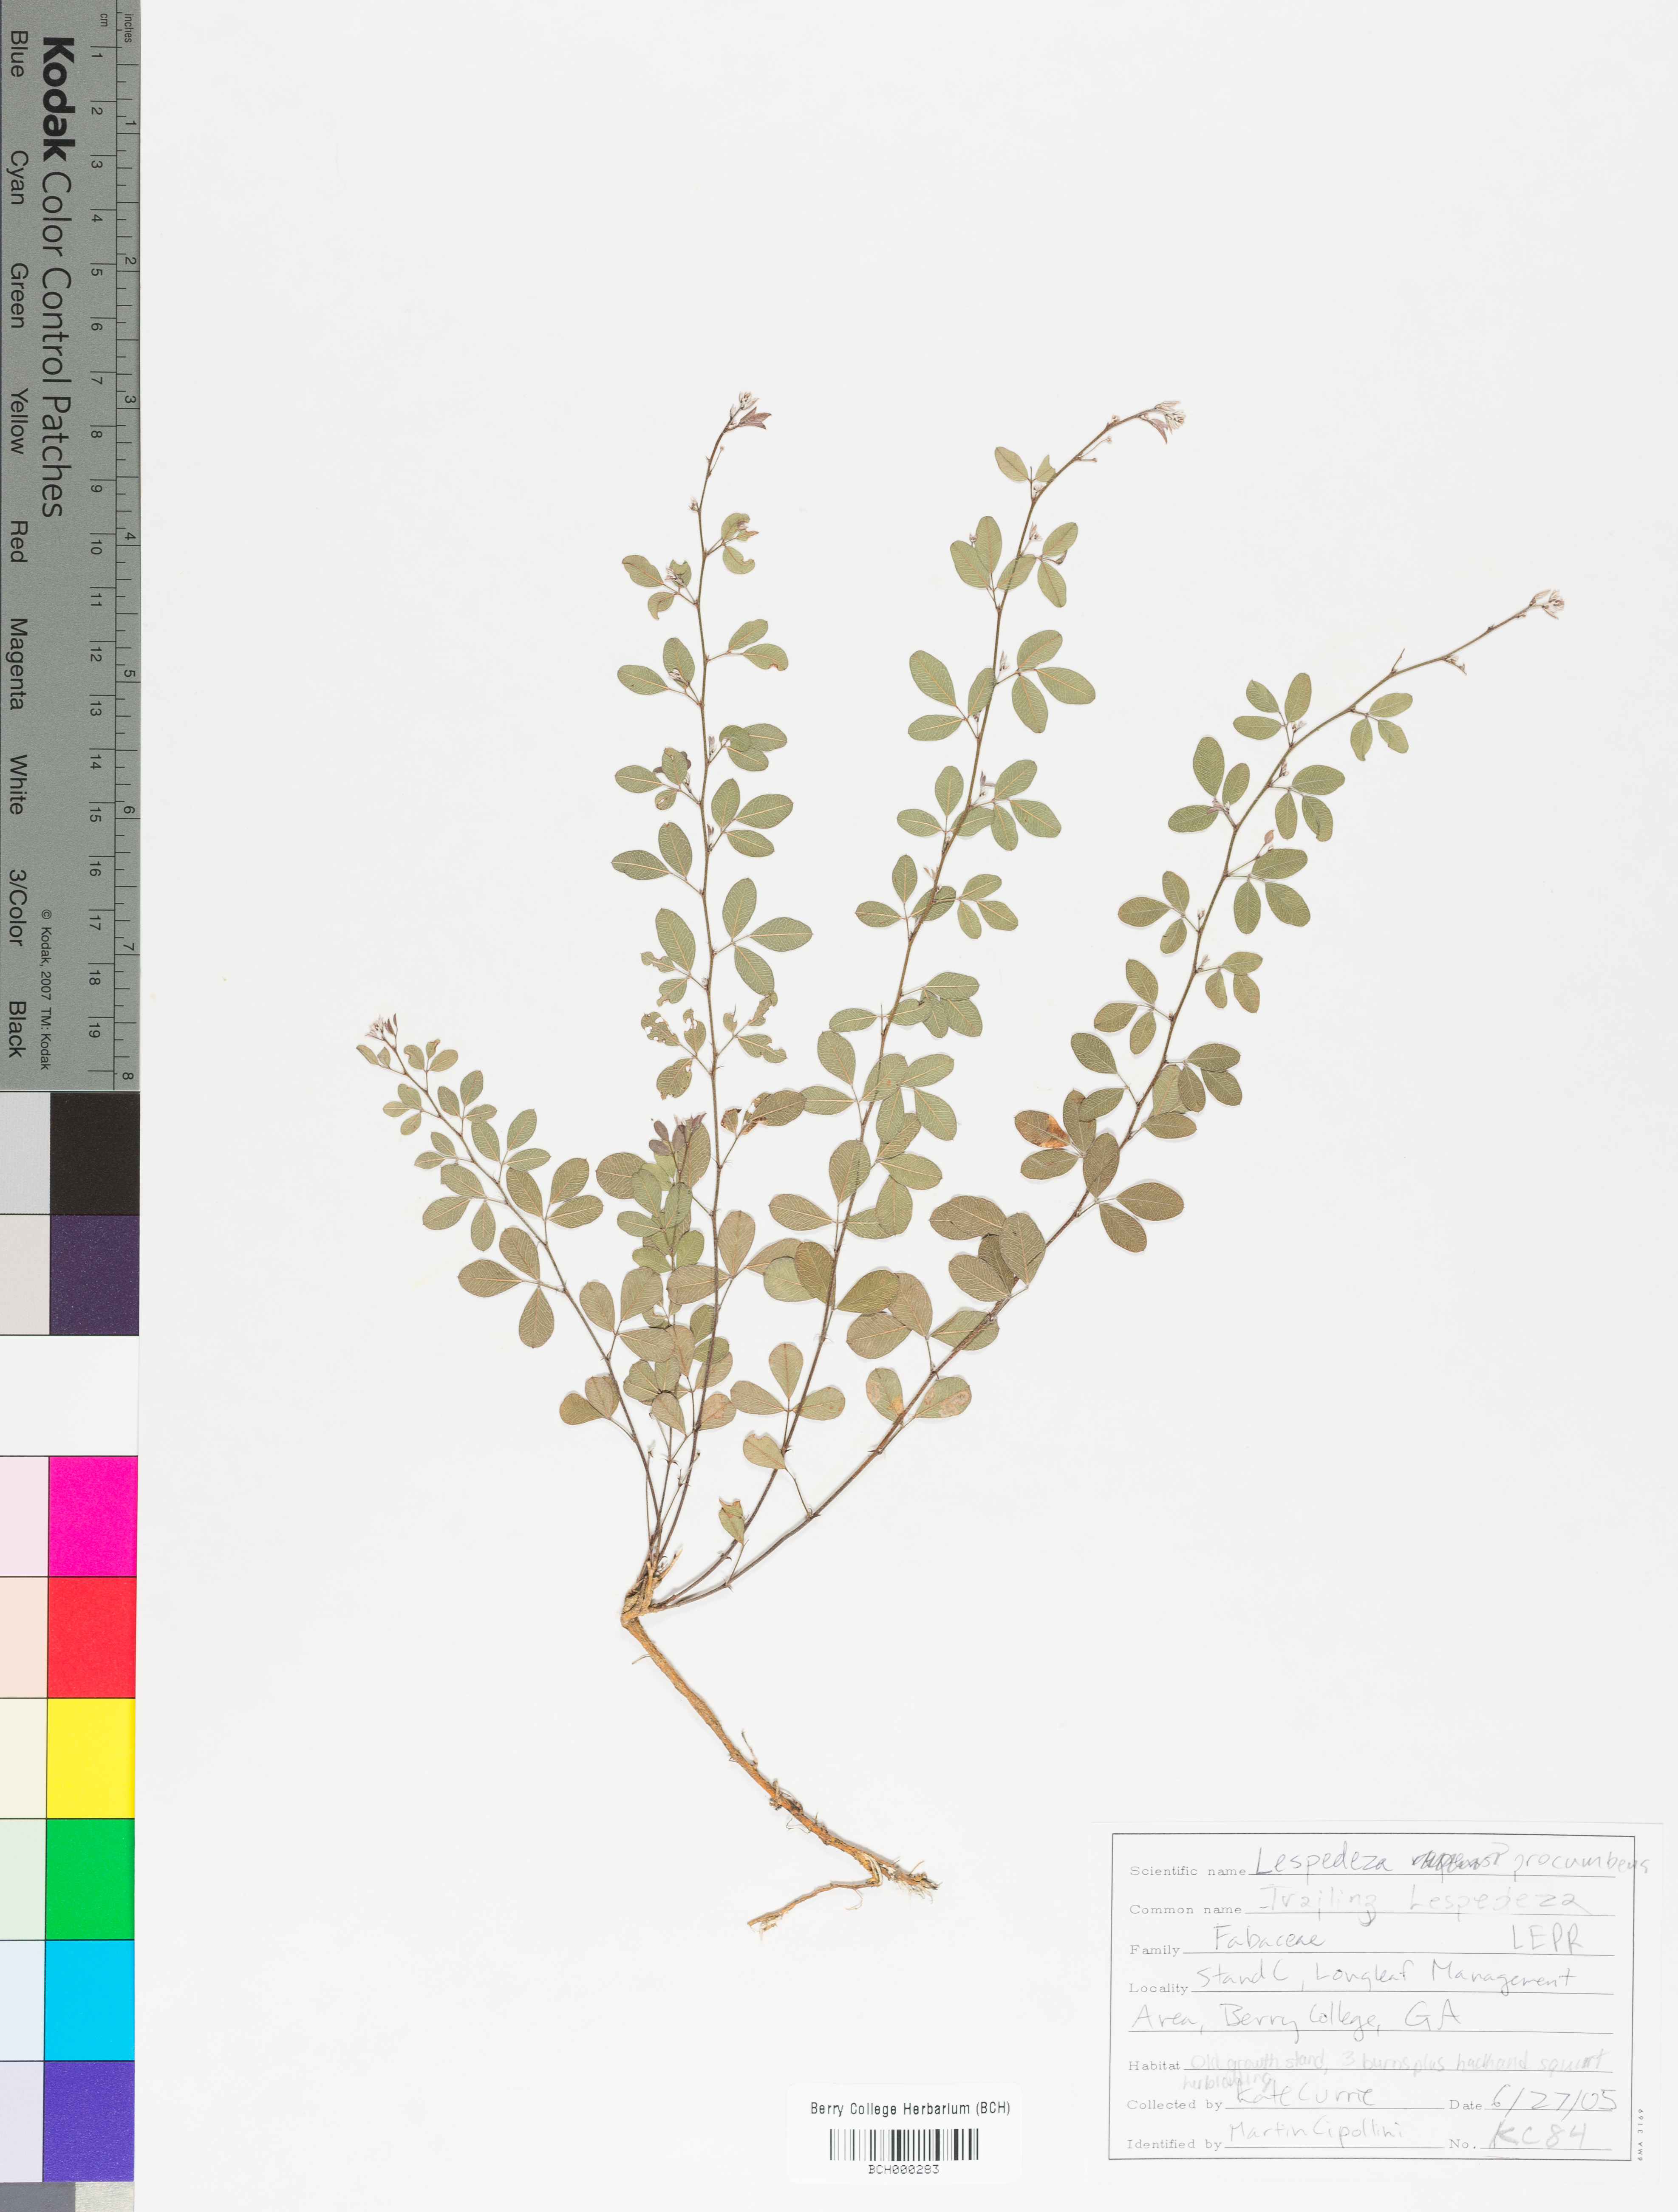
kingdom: Plantae
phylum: Tracheophyta
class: Magnoliopsida
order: Fabales
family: Fabaceae
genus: Lespedeza
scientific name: Lespedeza procumbens
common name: Downy trailing bush-clover
